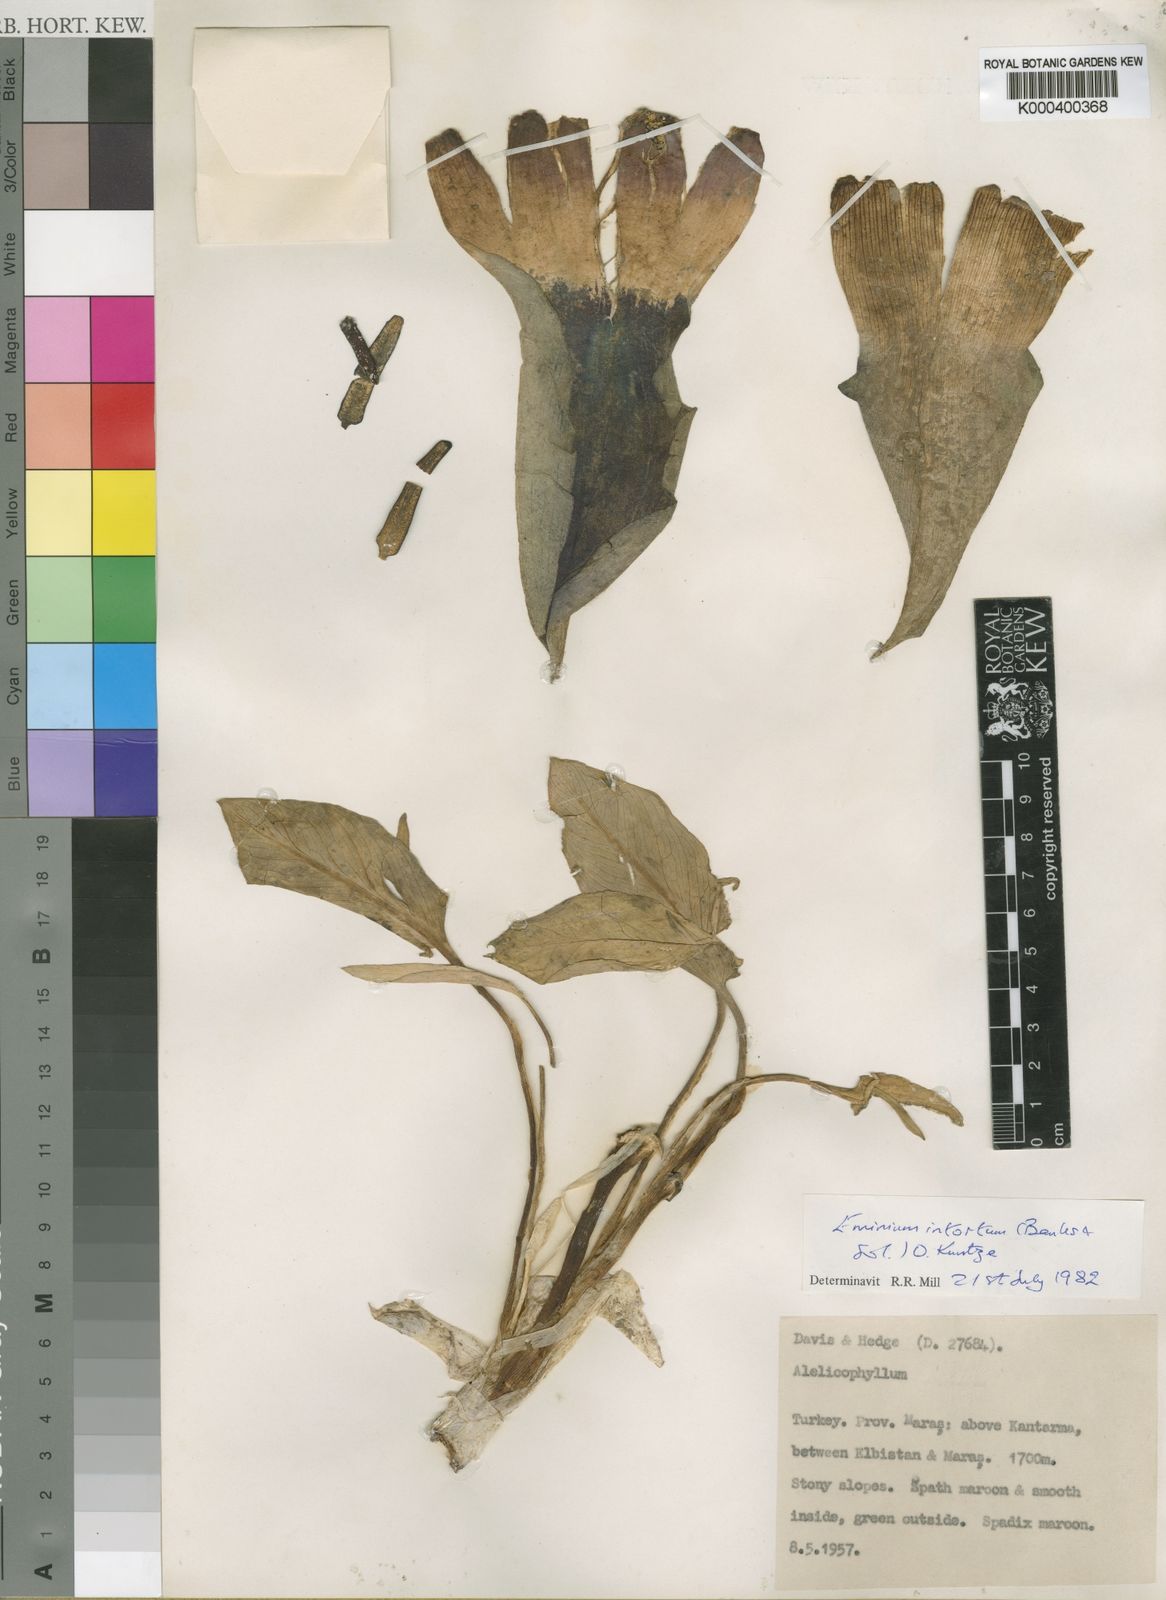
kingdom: Plantae
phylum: Tracheophyta
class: Liliopsida
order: Alismatales
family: Araceae
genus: Eminium
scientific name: Eminium intortum
